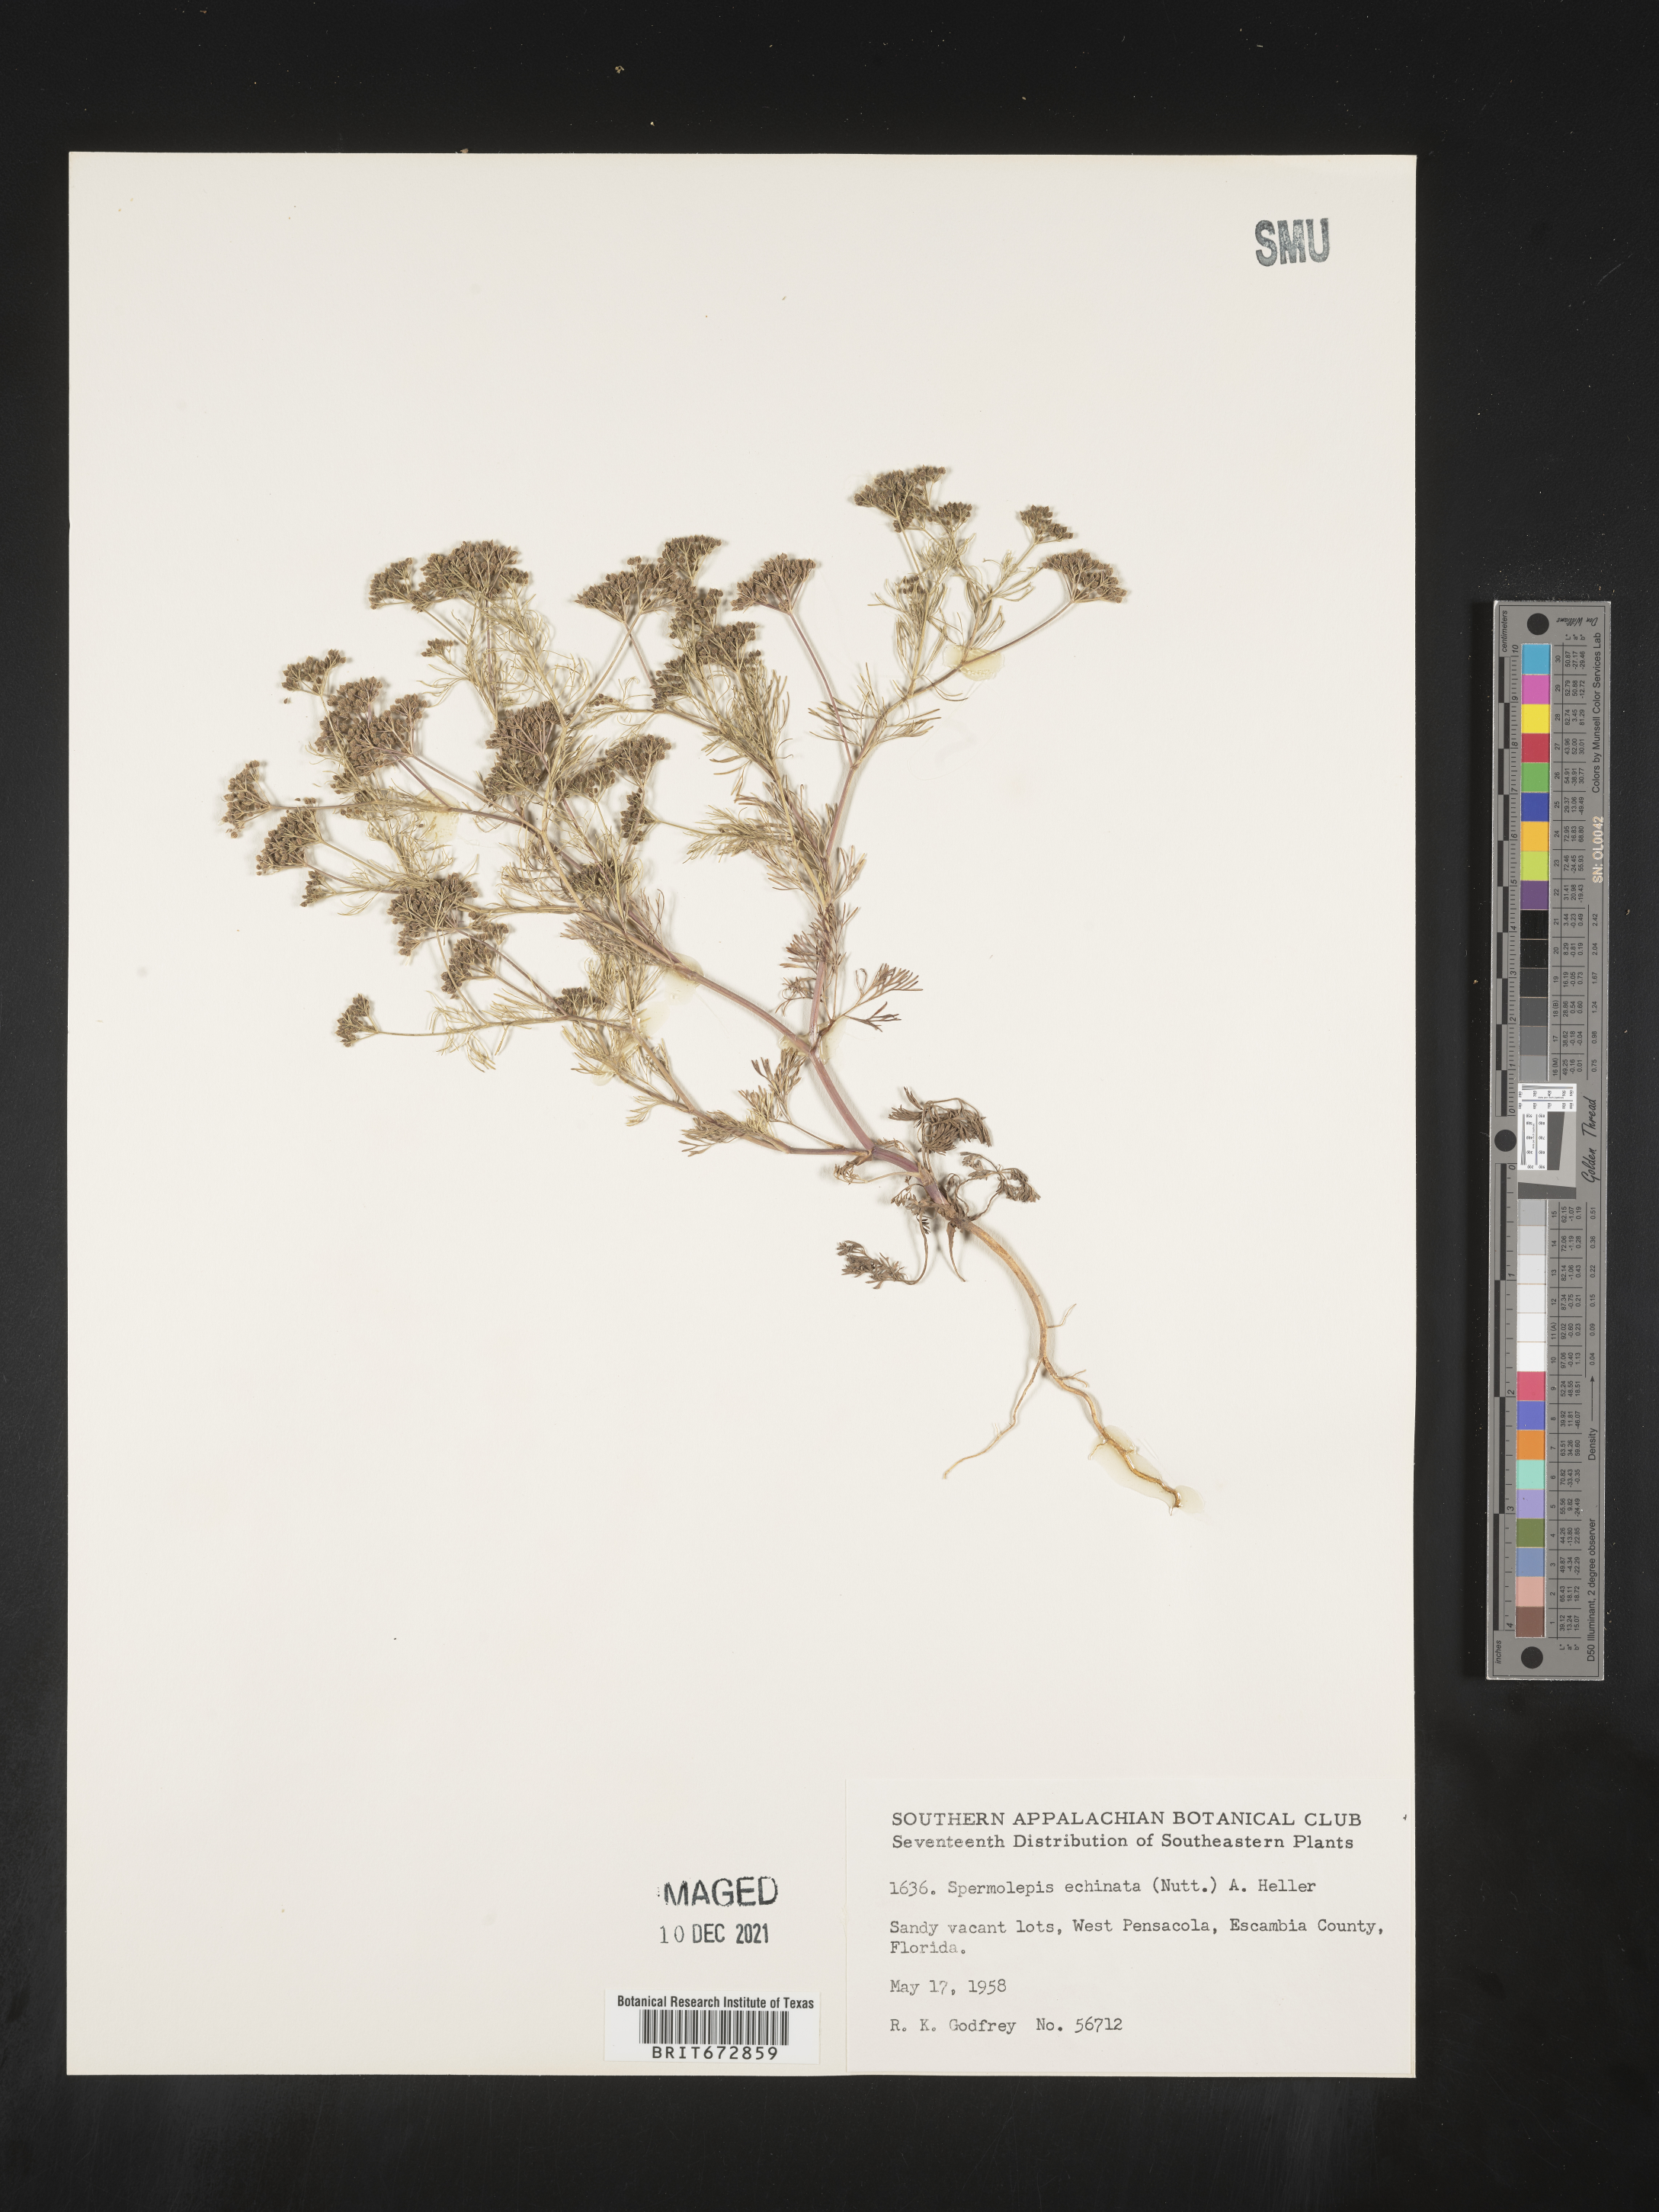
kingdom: Plantae
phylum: Tracheophyta
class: Magnoliopsida
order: Apiales
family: Apiaceae
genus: Spermolepis
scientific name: Spermolepis echinata
